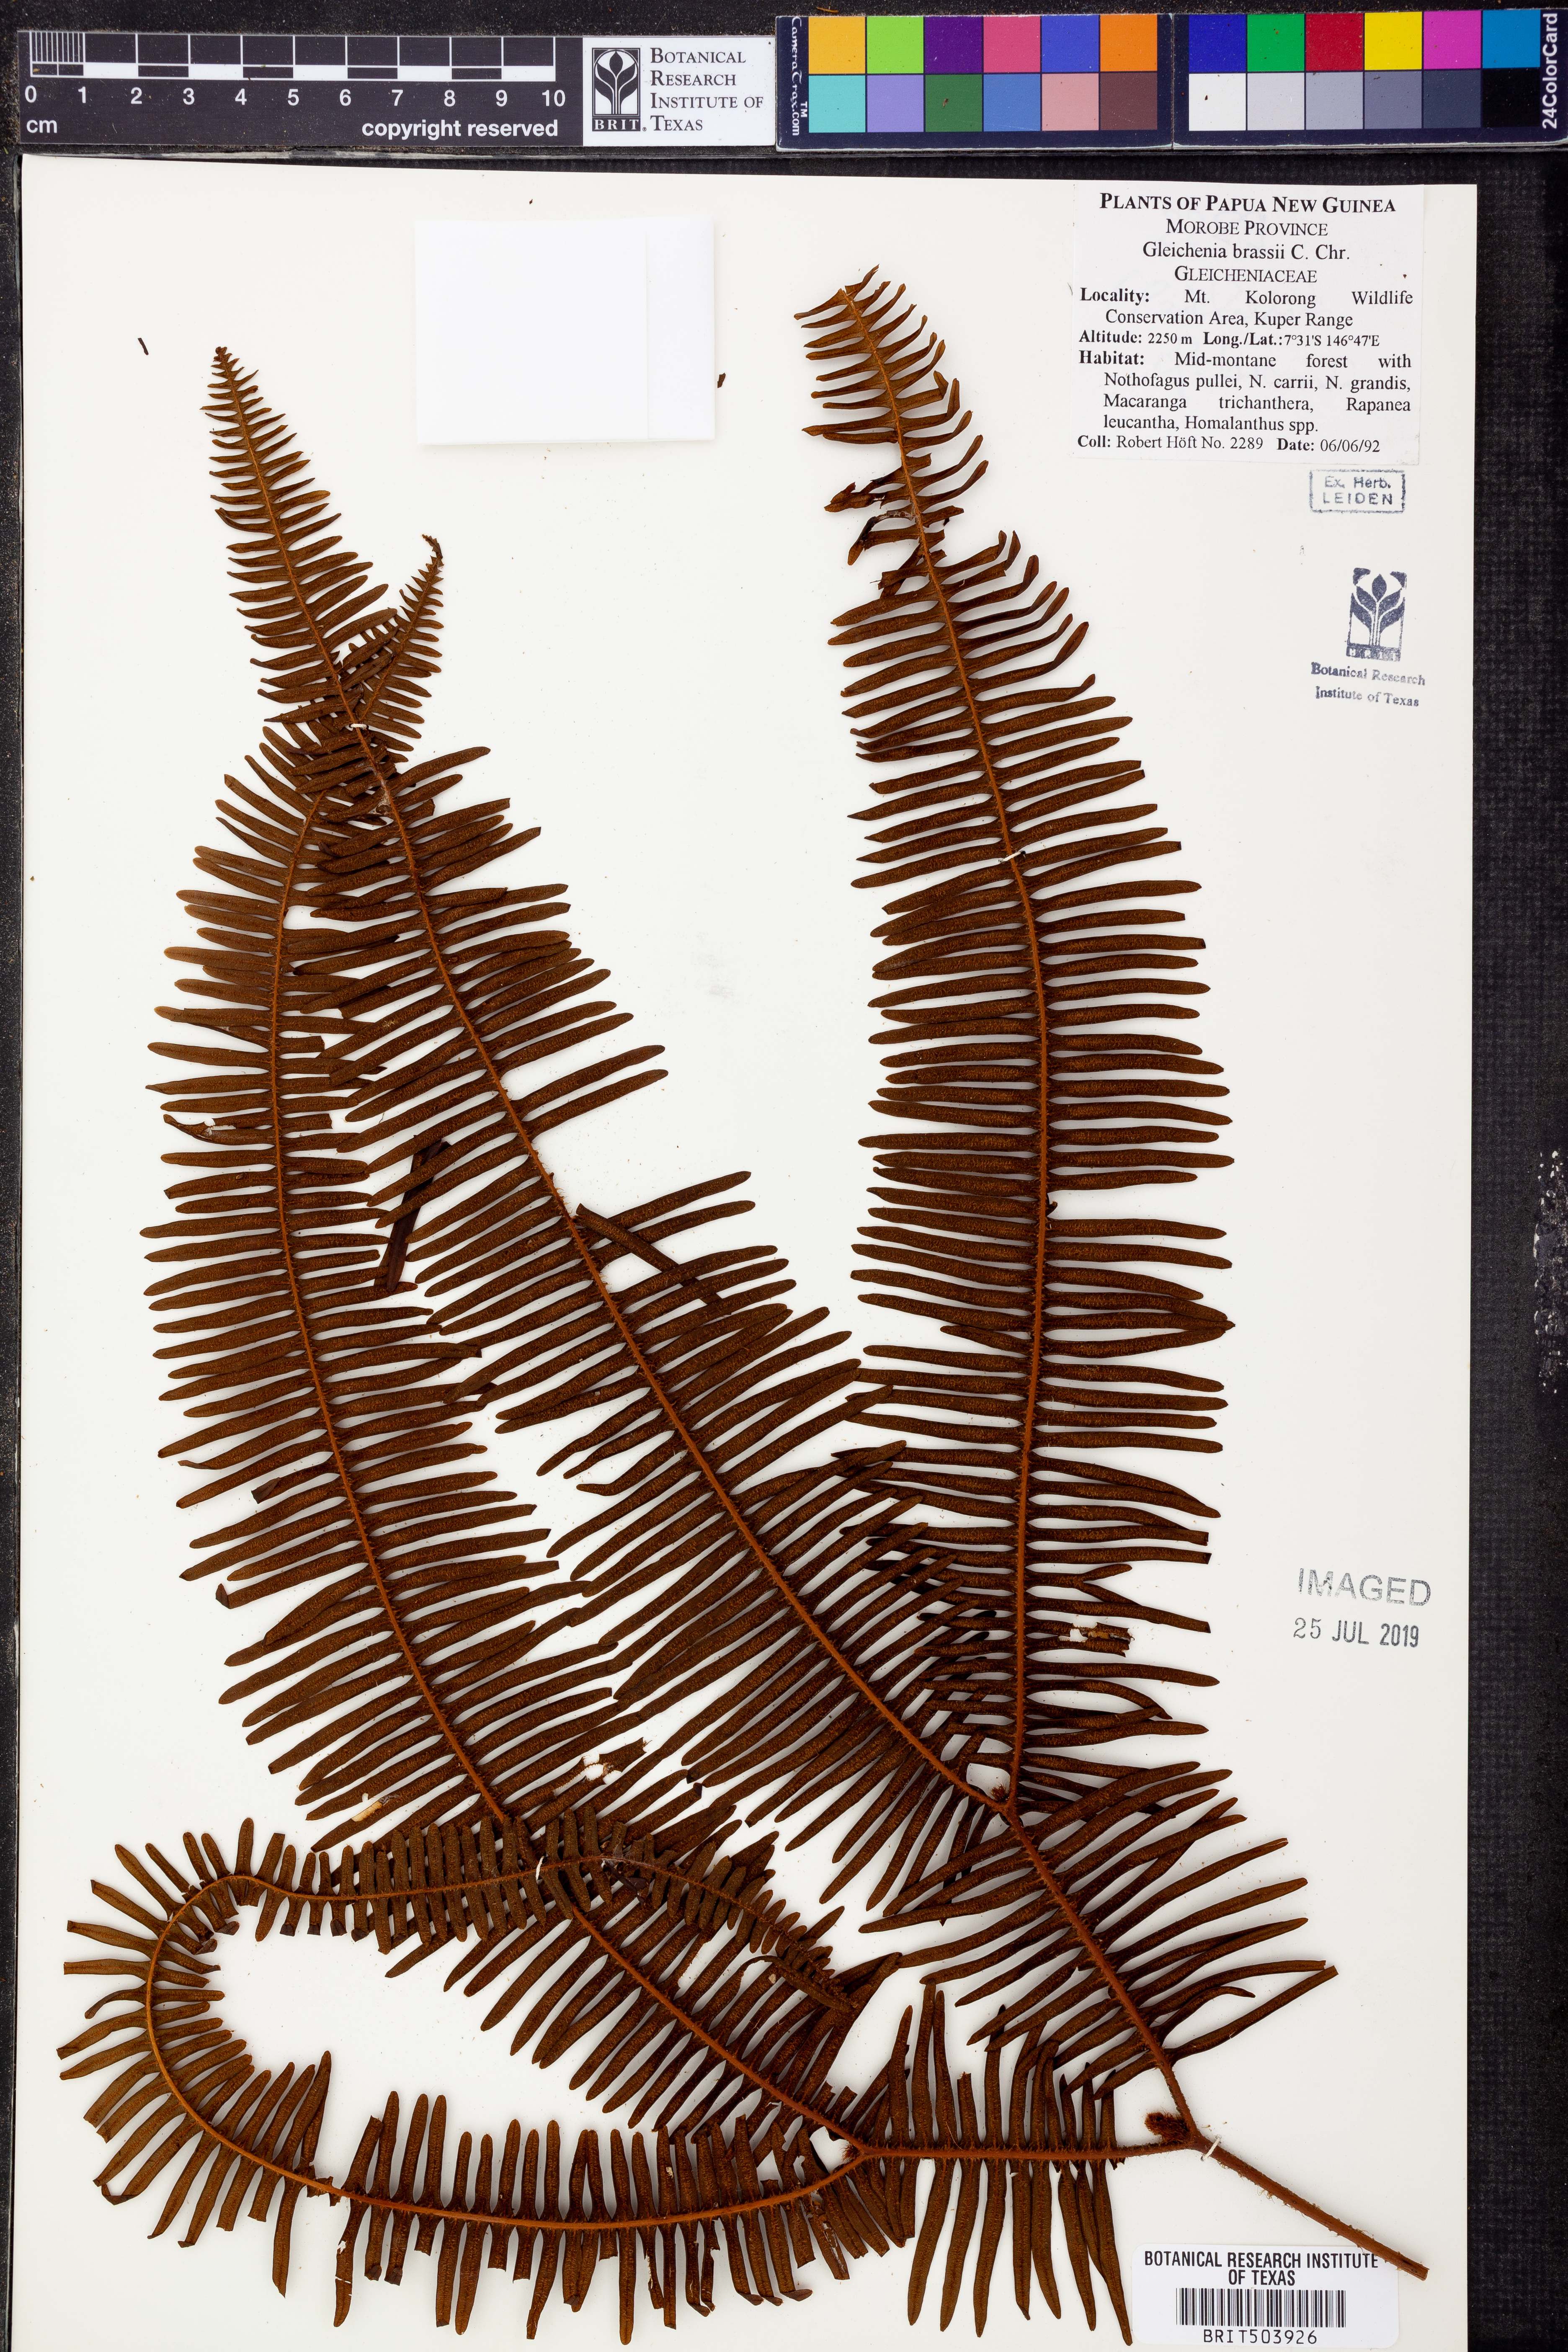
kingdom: Plantae
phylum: Tracheophyta
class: Polypodiopsida
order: Gleicheniales
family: Gleicheniaceae
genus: Sticherus
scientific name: Sticherus brassii
